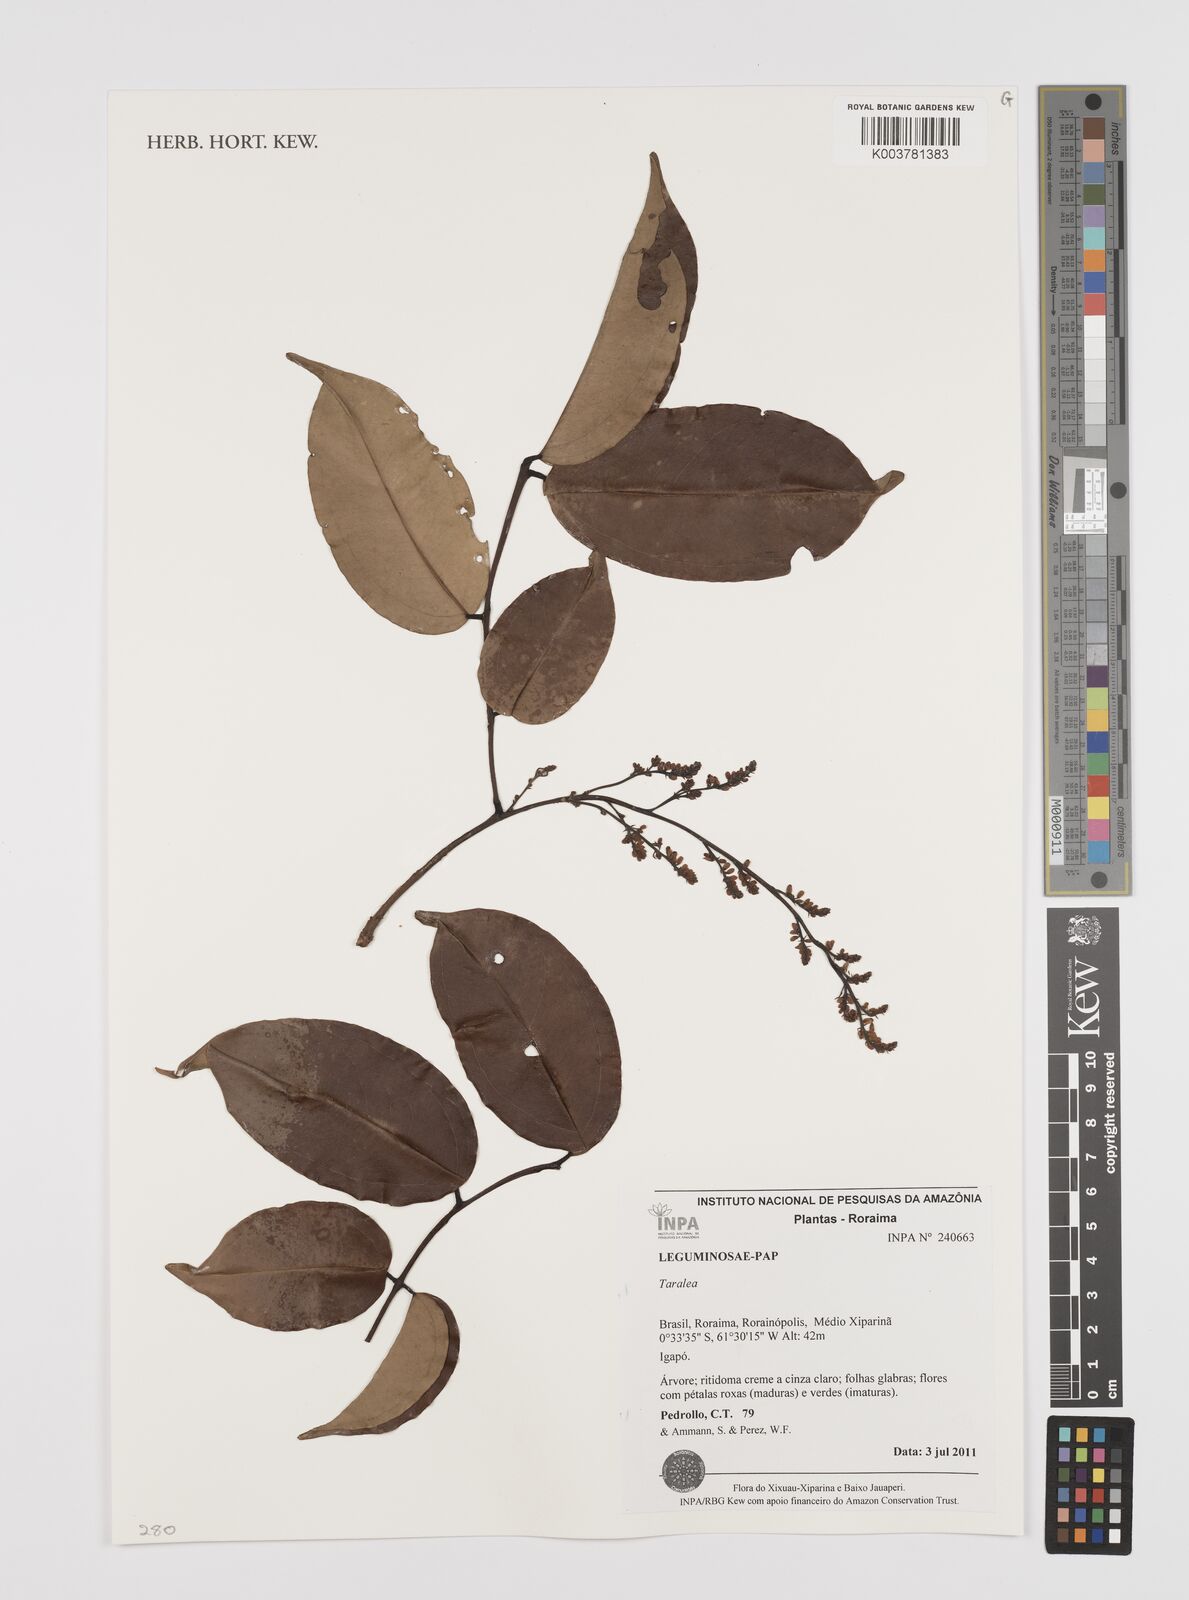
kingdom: Plantae
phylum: Tracheophyta
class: Magnoliopsida
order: Fabales
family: Fabaceae
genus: Taralea
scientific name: Taralea
